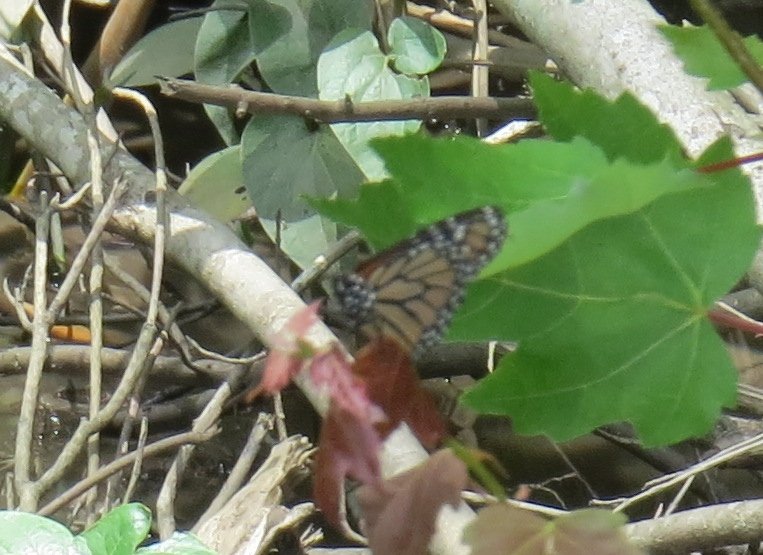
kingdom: Animalia
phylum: Arthropoda
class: Insecta
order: Lepidoptera
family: Nymphalidae
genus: Danaus
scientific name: Danaus plexippus
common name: Monarch
